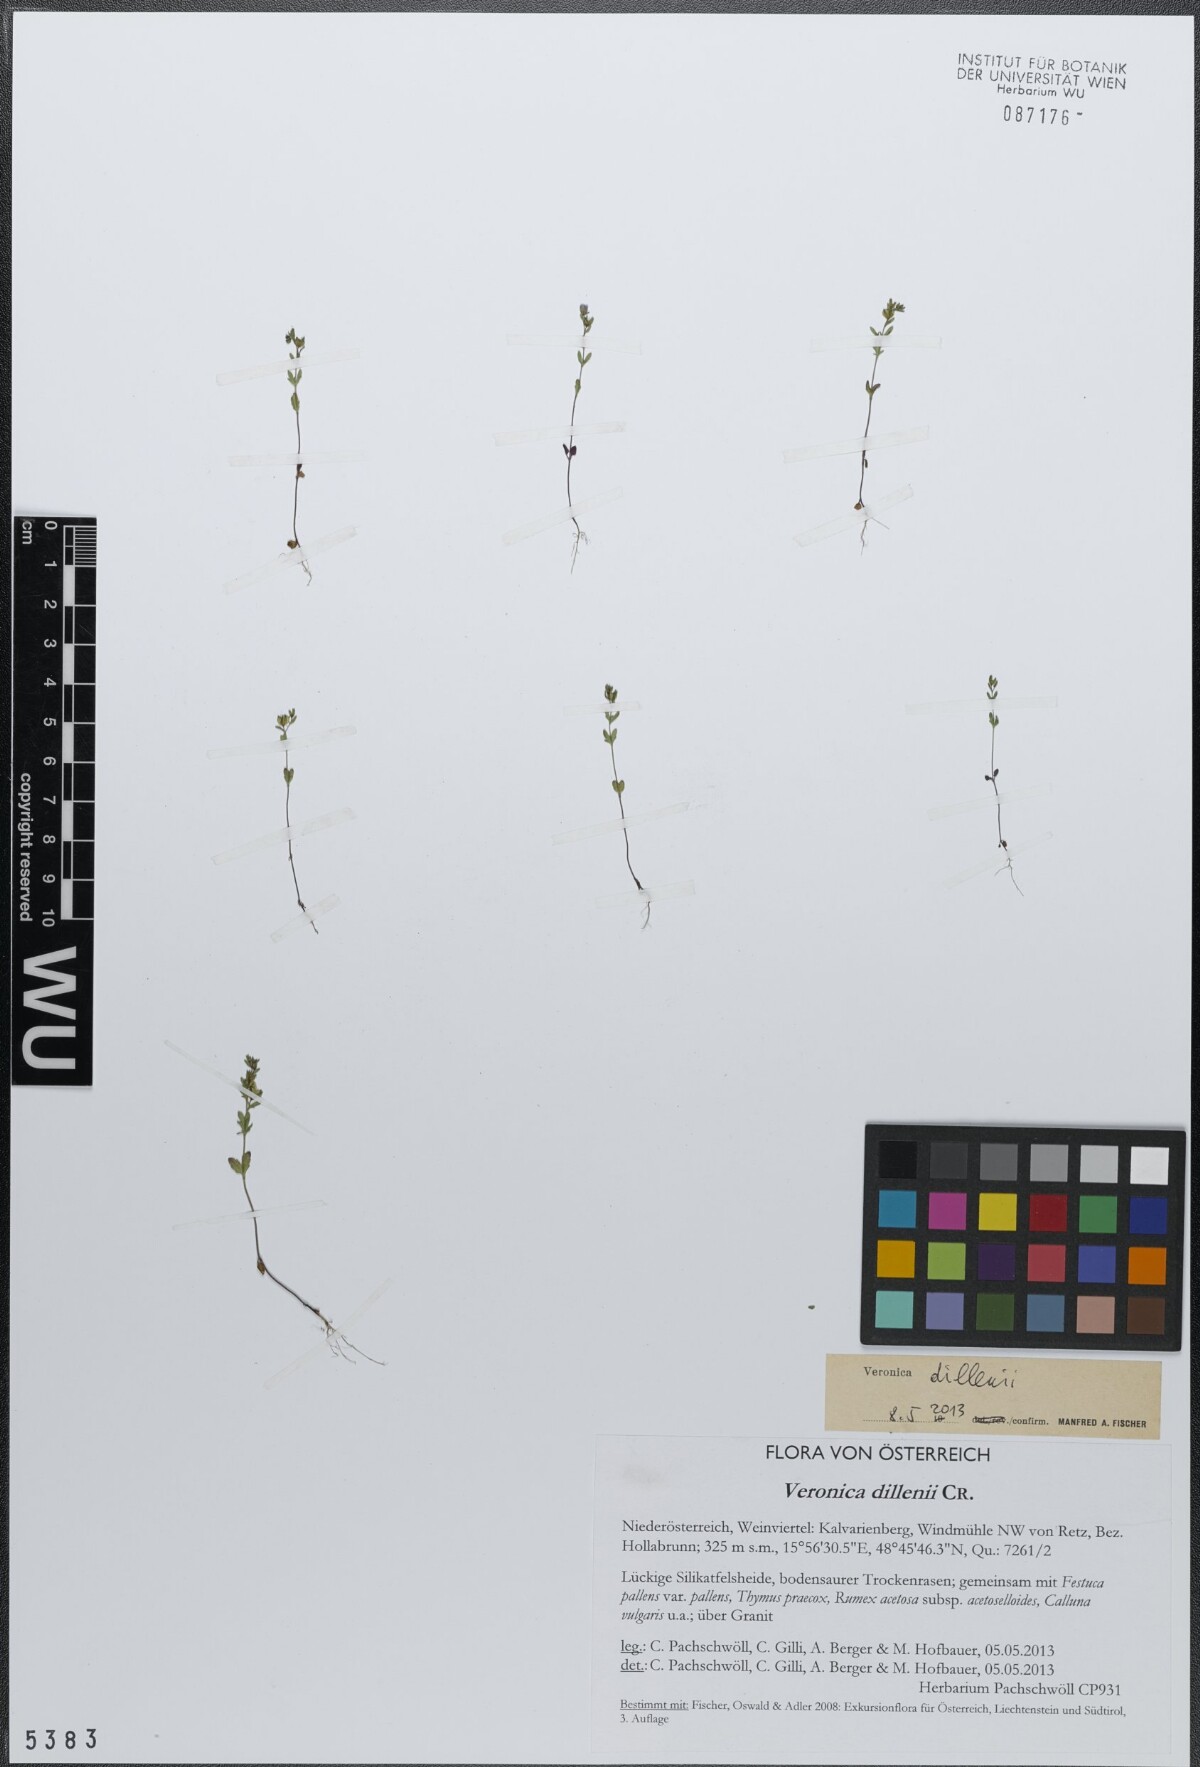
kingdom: Plantae
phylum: Tracheophyta
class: Magnoliopsida
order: Lamiales
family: Plantaginaceae
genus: Veronica
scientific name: Veronica dillenii
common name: Dillenius' speedwell
